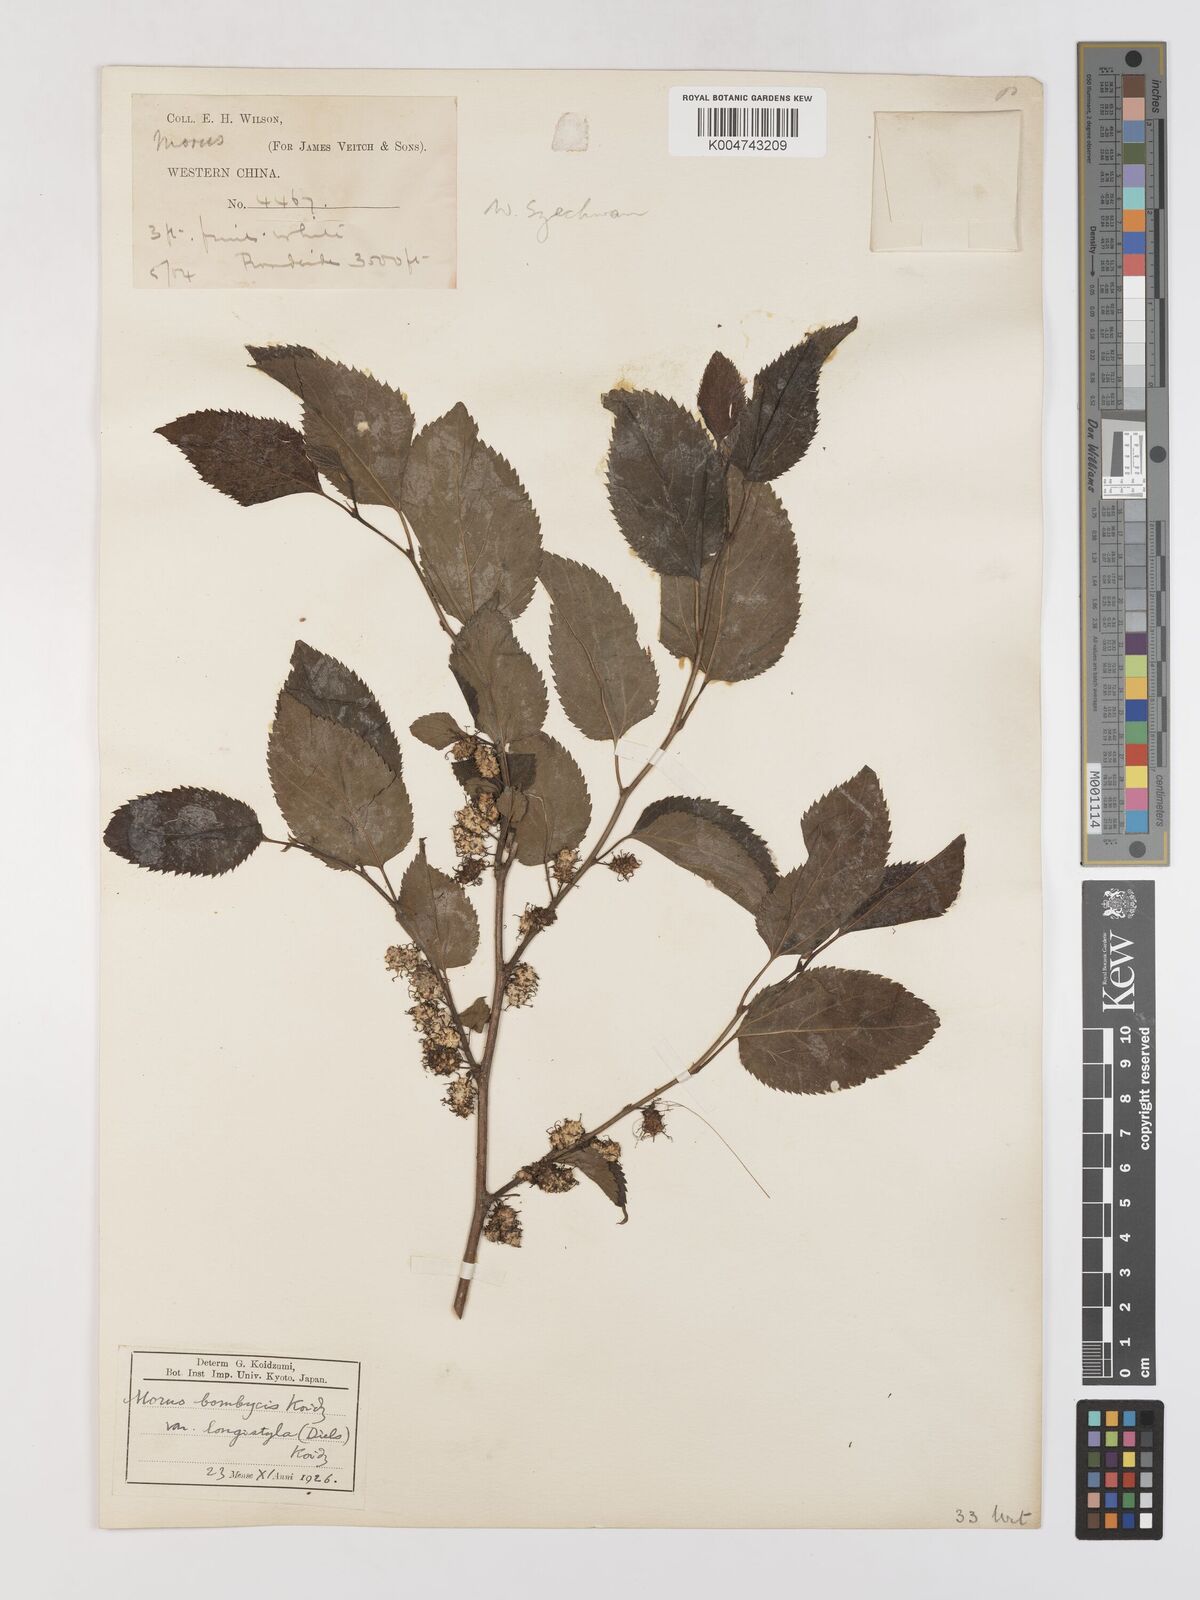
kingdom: Plantae
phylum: Tracheophyta
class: Magnoliopsida
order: Rosales
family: Moraceae
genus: Morus
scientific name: Morus indica
